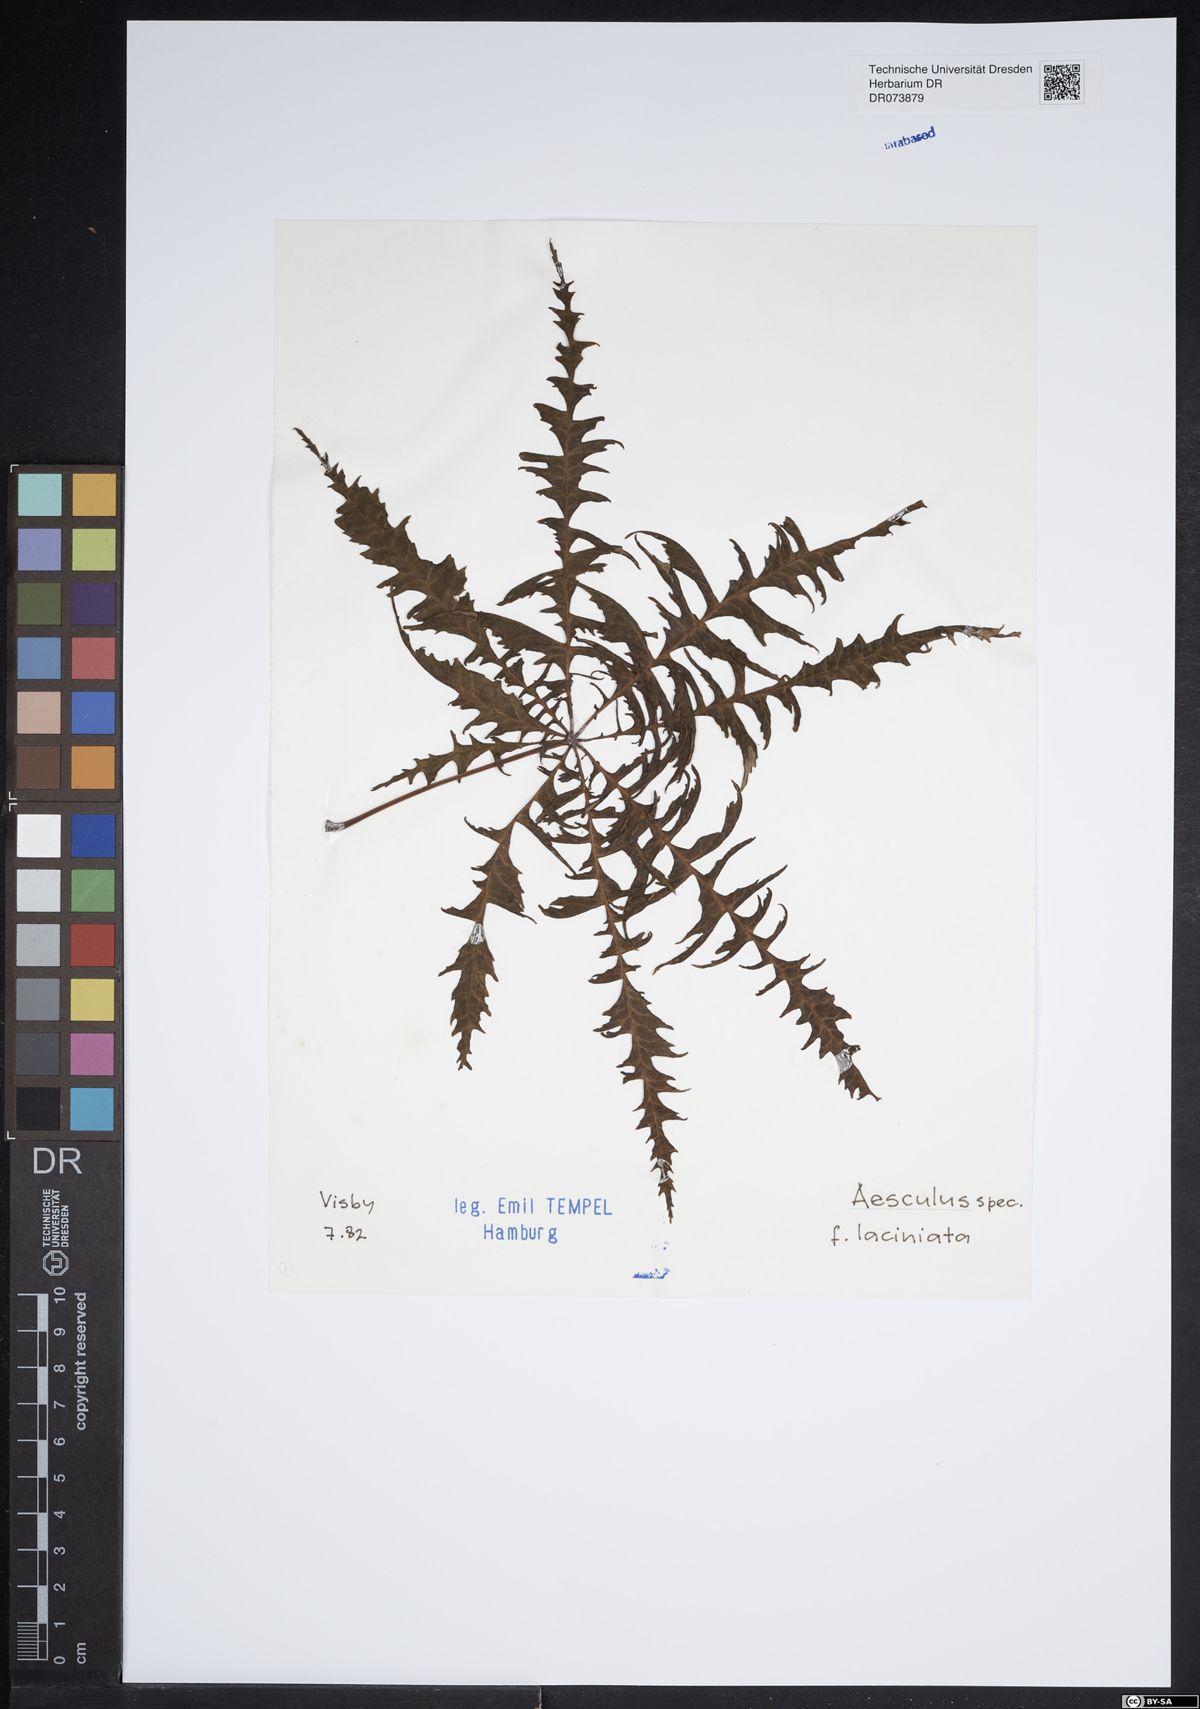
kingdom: Plantae
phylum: Tracheophyta
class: Magnoliopsida
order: Sapindales
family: Sapindaceae
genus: Aesculus
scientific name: Aesculus
